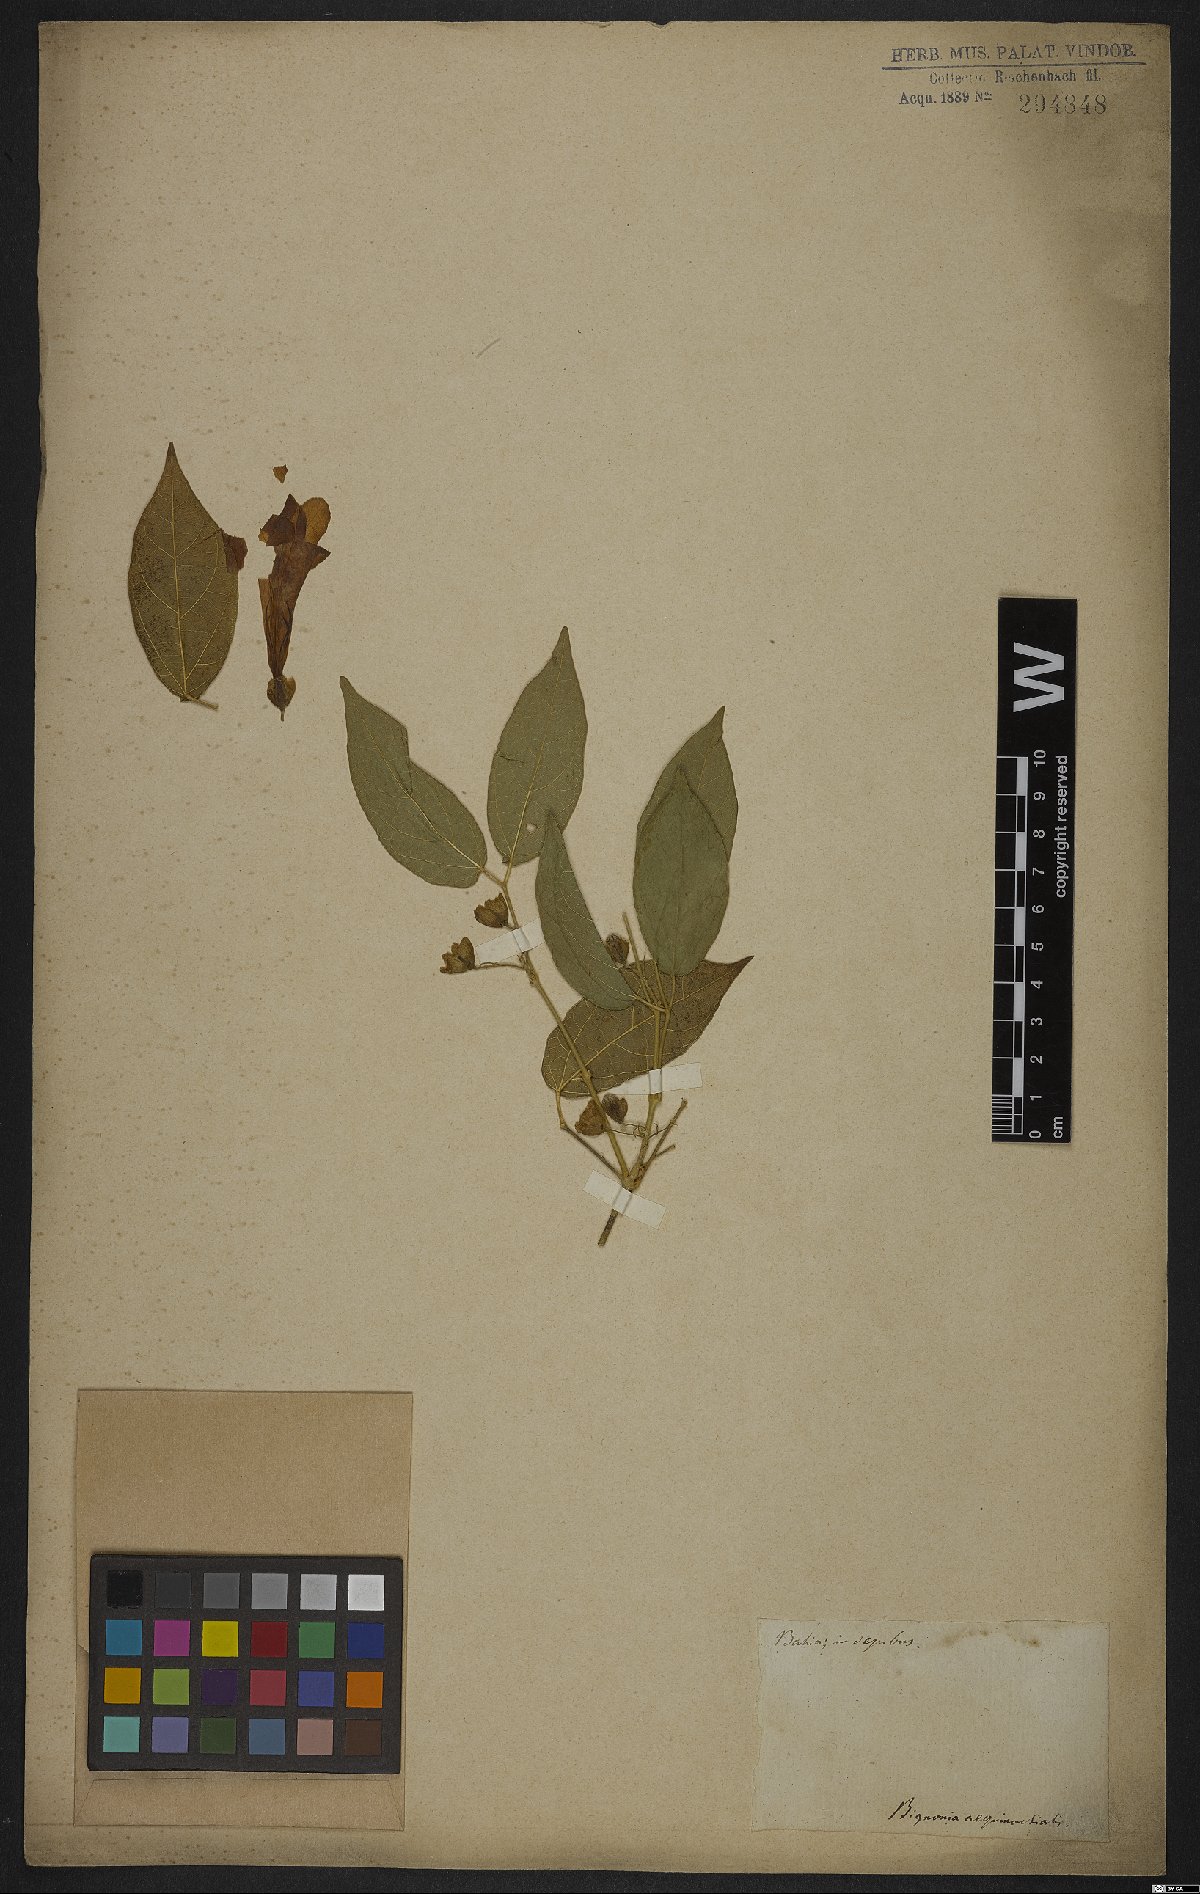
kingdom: Plantae
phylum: Tracheophyta
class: Magnoliopsida
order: Lamiales
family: Bignoniaceae
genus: Bignonia
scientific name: Bignonia aequinoctialis
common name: Garlicvine
